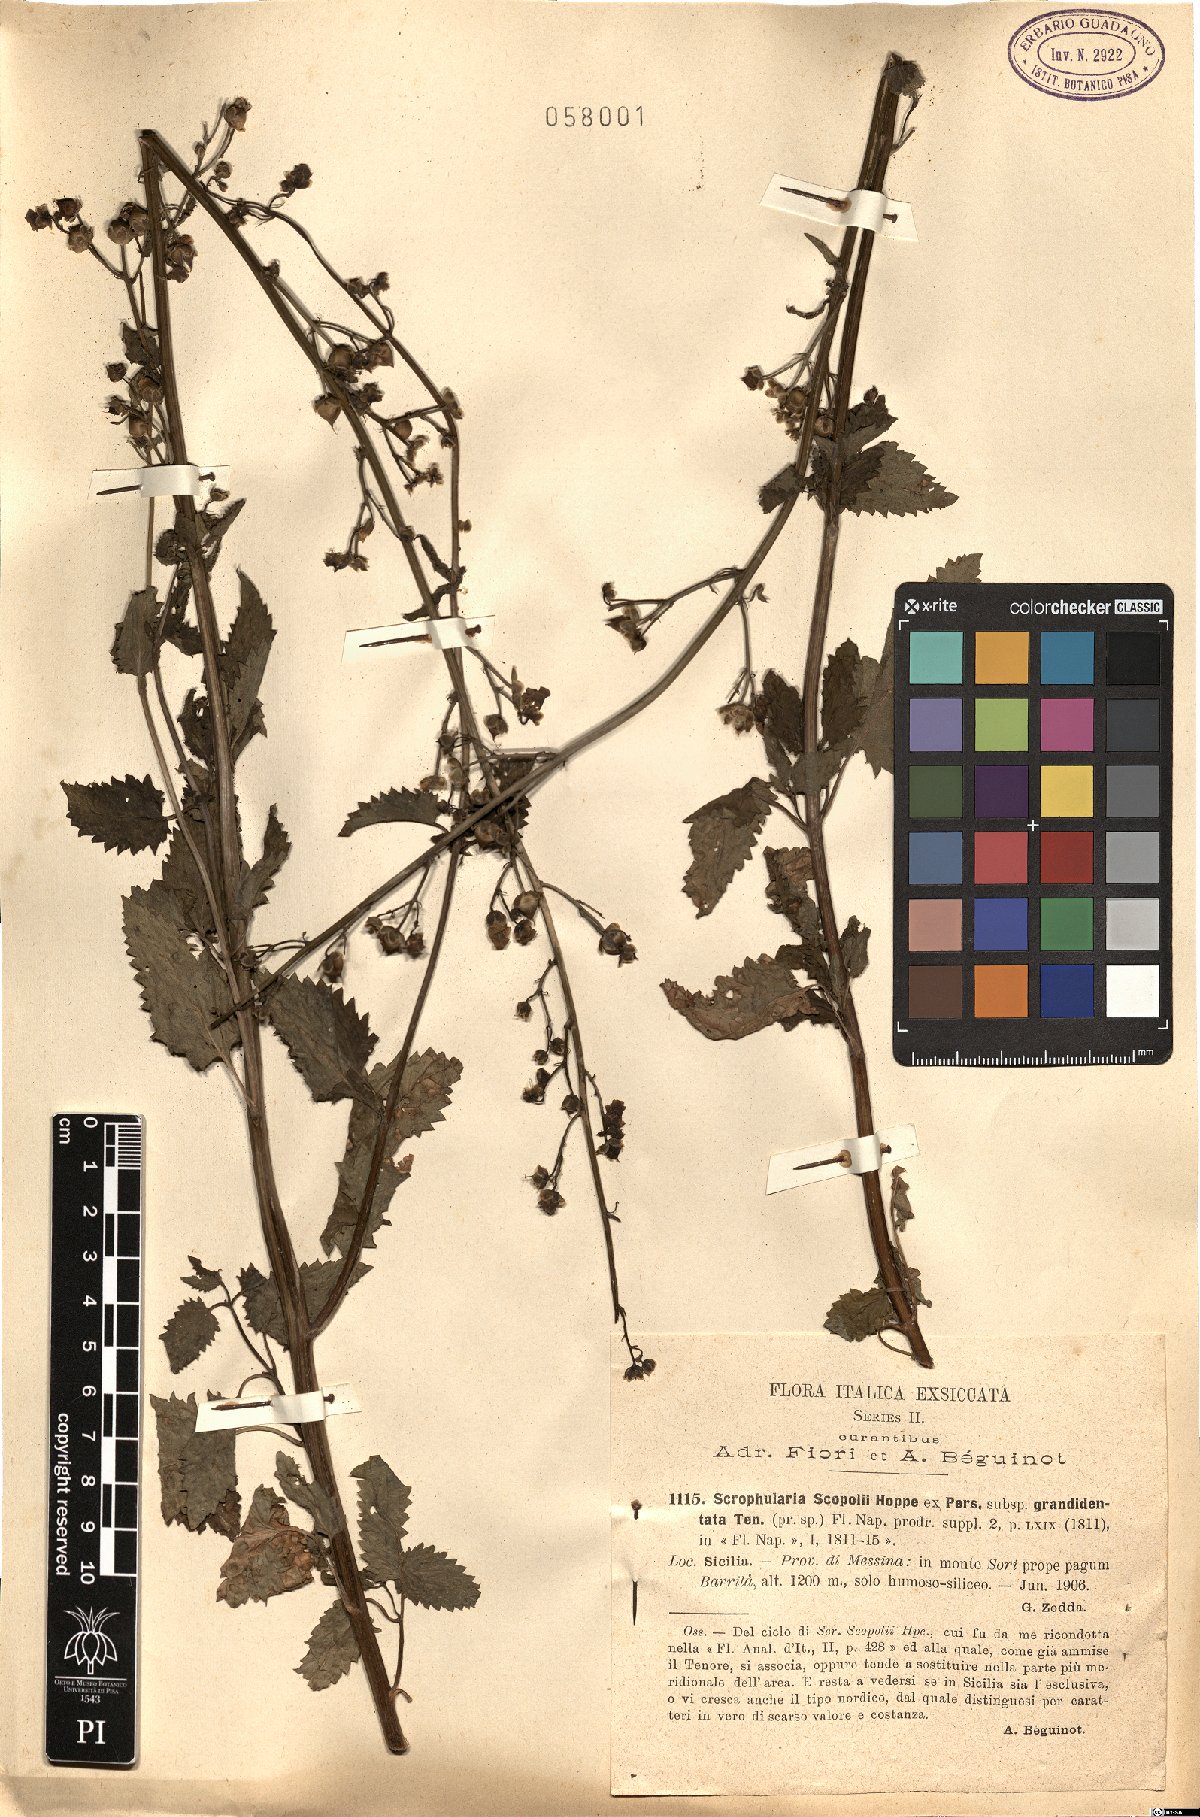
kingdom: Plantae
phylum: Tracheophyta
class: Magnoliopsida
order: Lamiales
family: Scrophulariaceae
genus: Scrophularia
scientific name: Scrophularia scopolii
